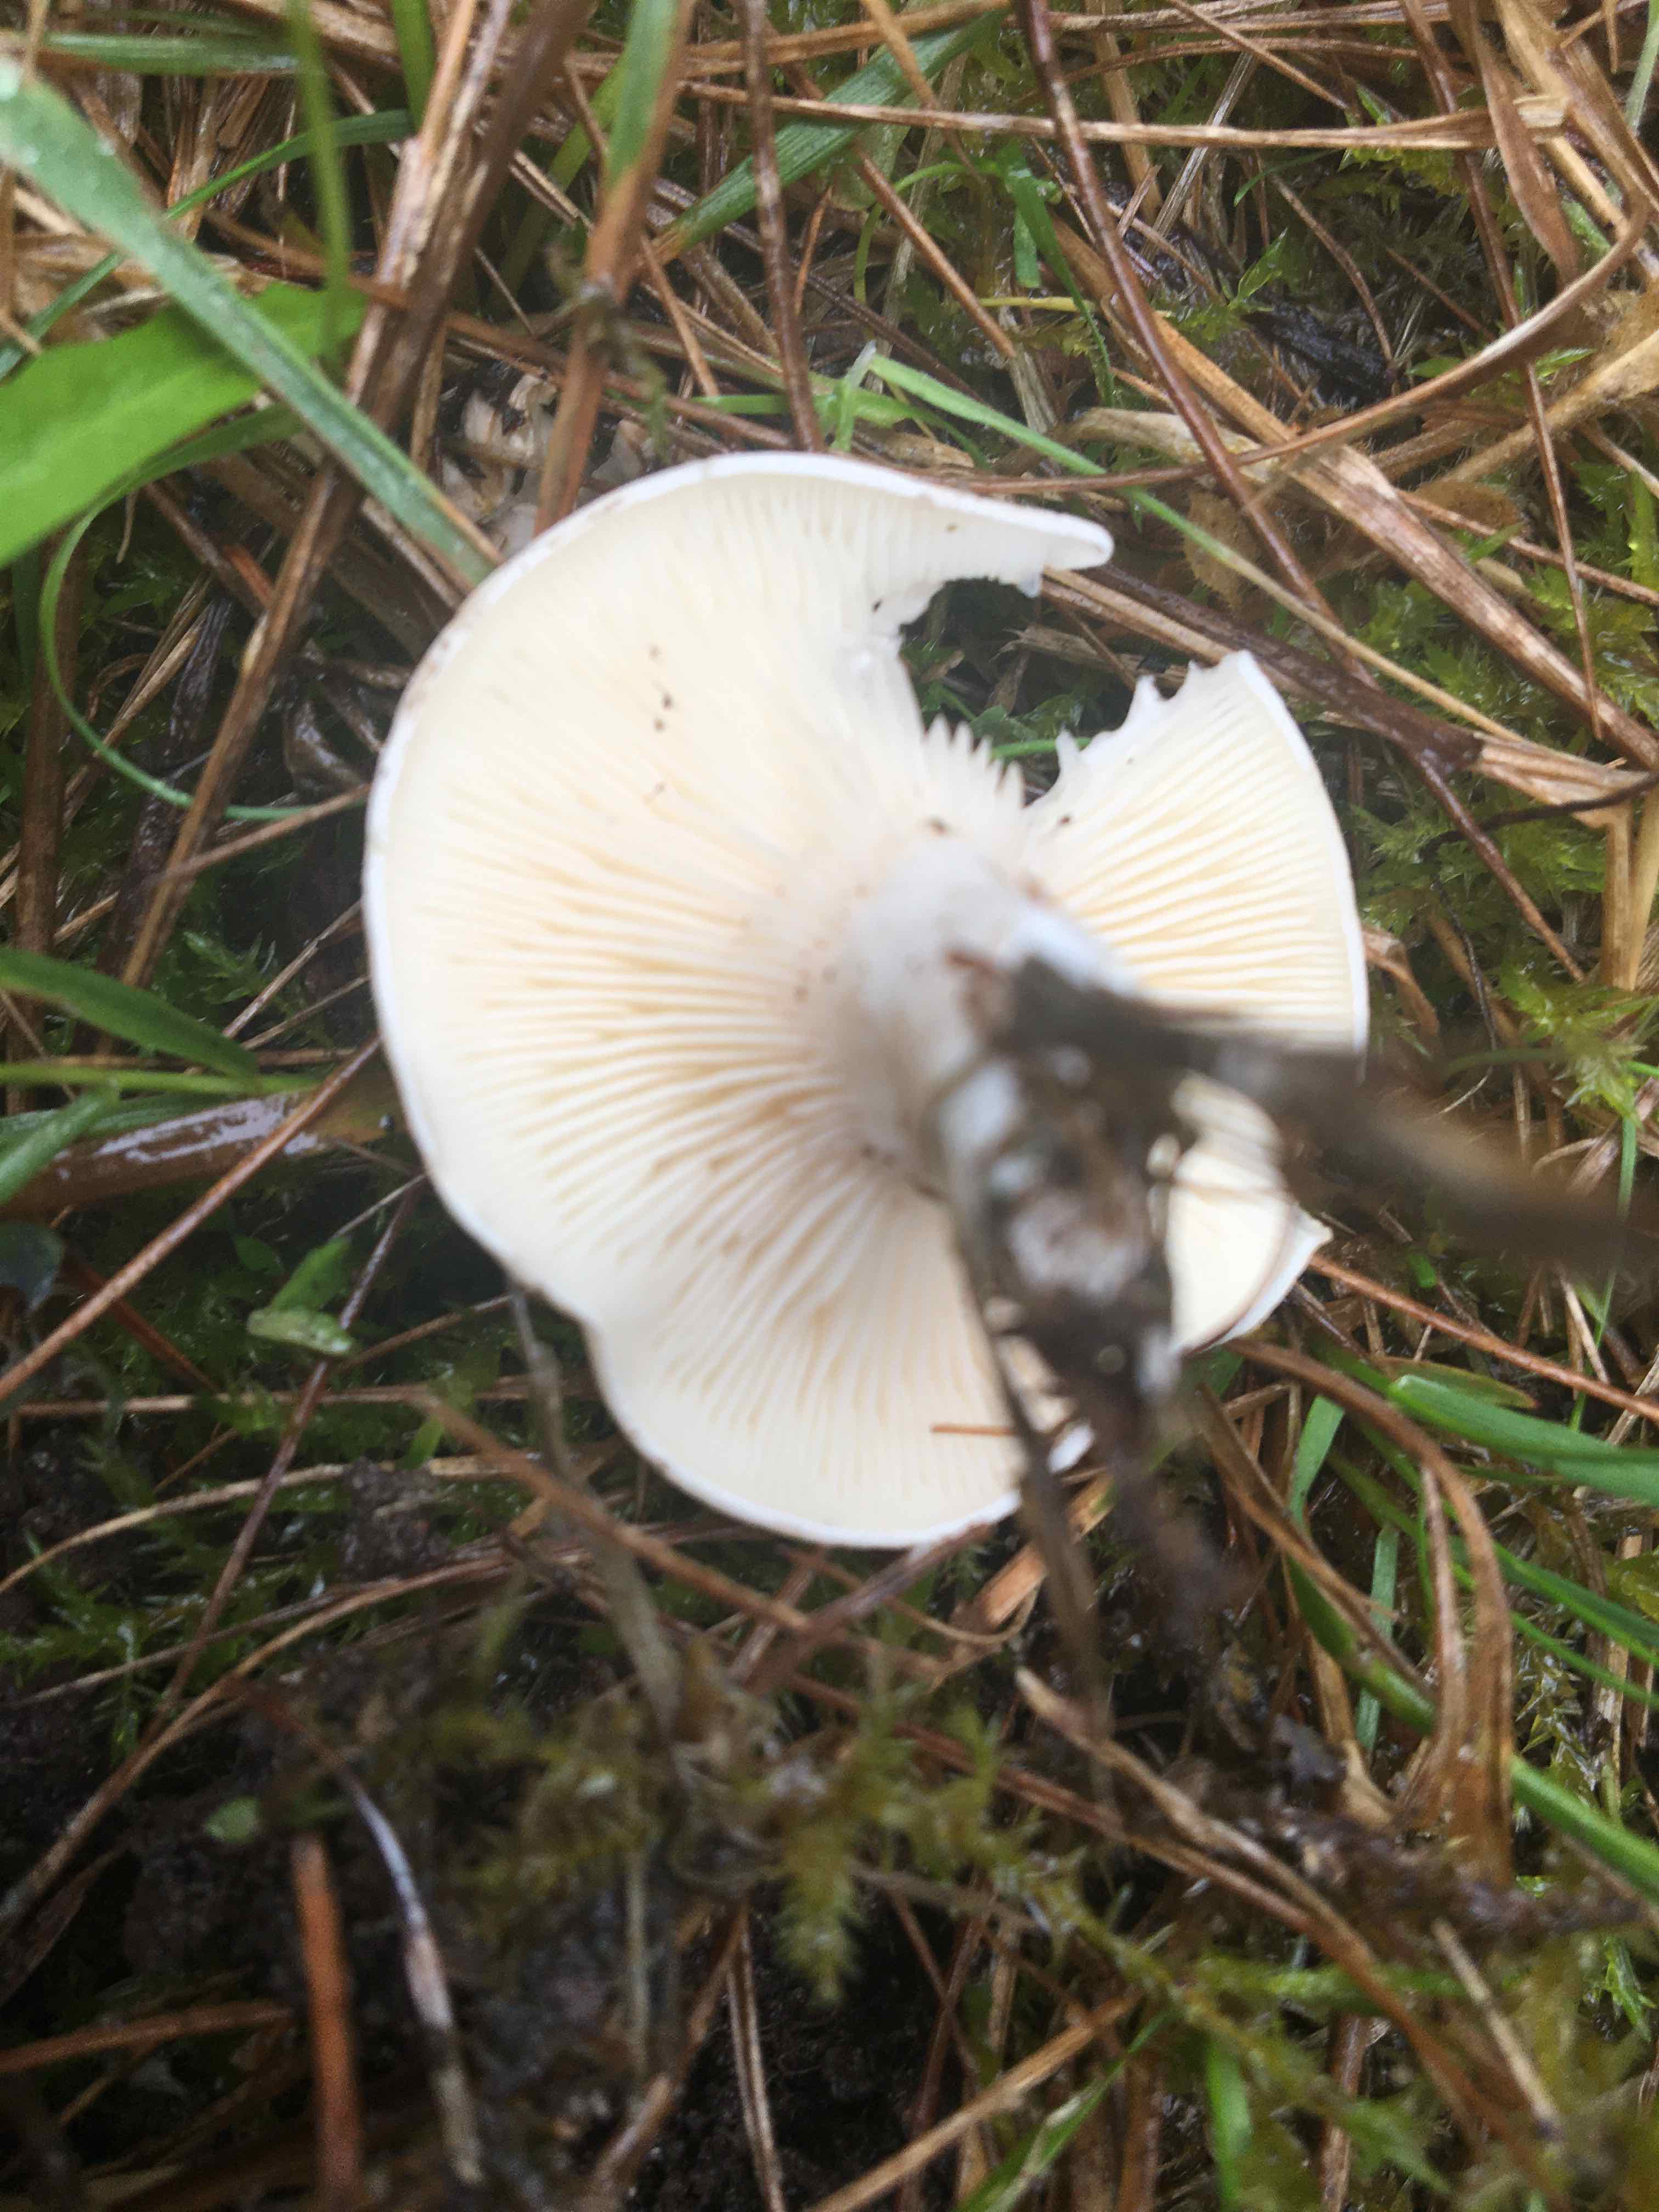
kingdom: Fungi
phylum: Basidiomycota
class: Agaricomycetes
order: Agaricales
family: Entolomataceae
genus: Clitopilus
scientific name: Clitopilus prunulus
